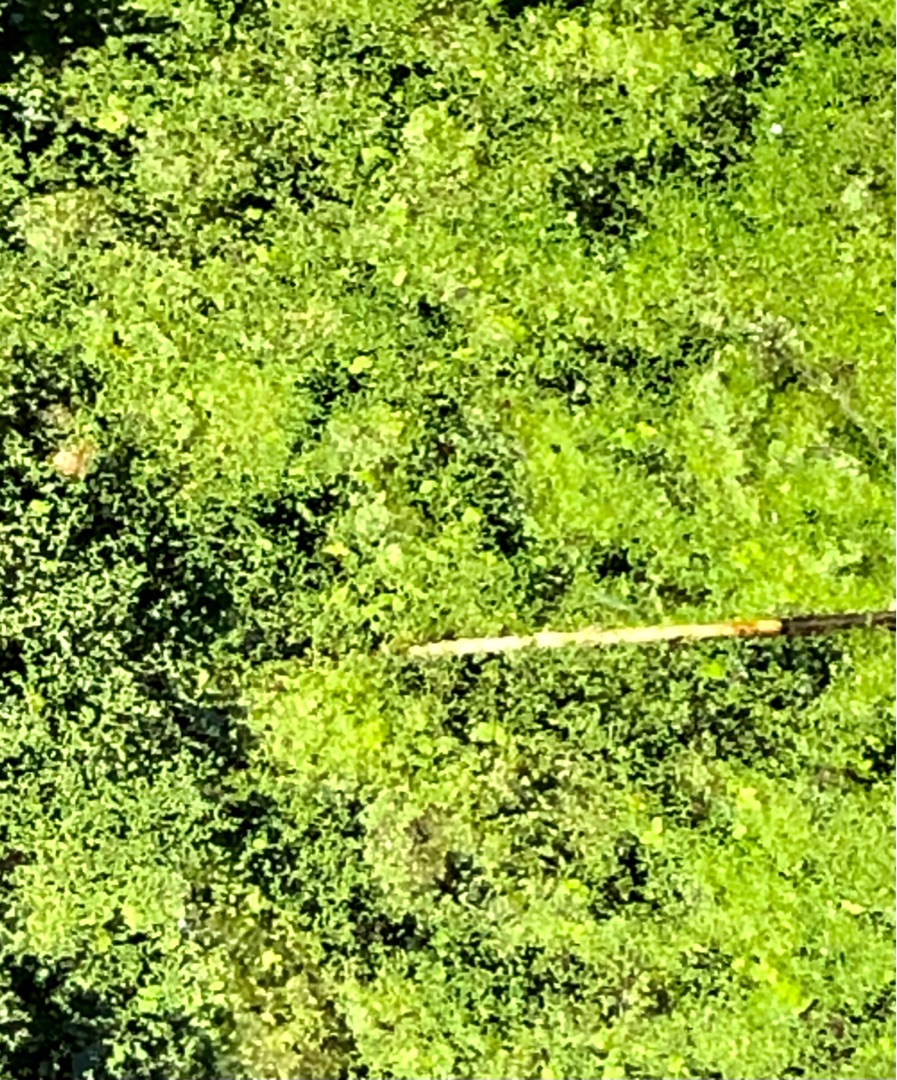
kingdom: Plantae
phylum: Tracheophyta
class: Liliopsida
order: Alismatales
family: Araceae
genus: Lemna
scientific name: Lemna minor
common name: Liden andemad
